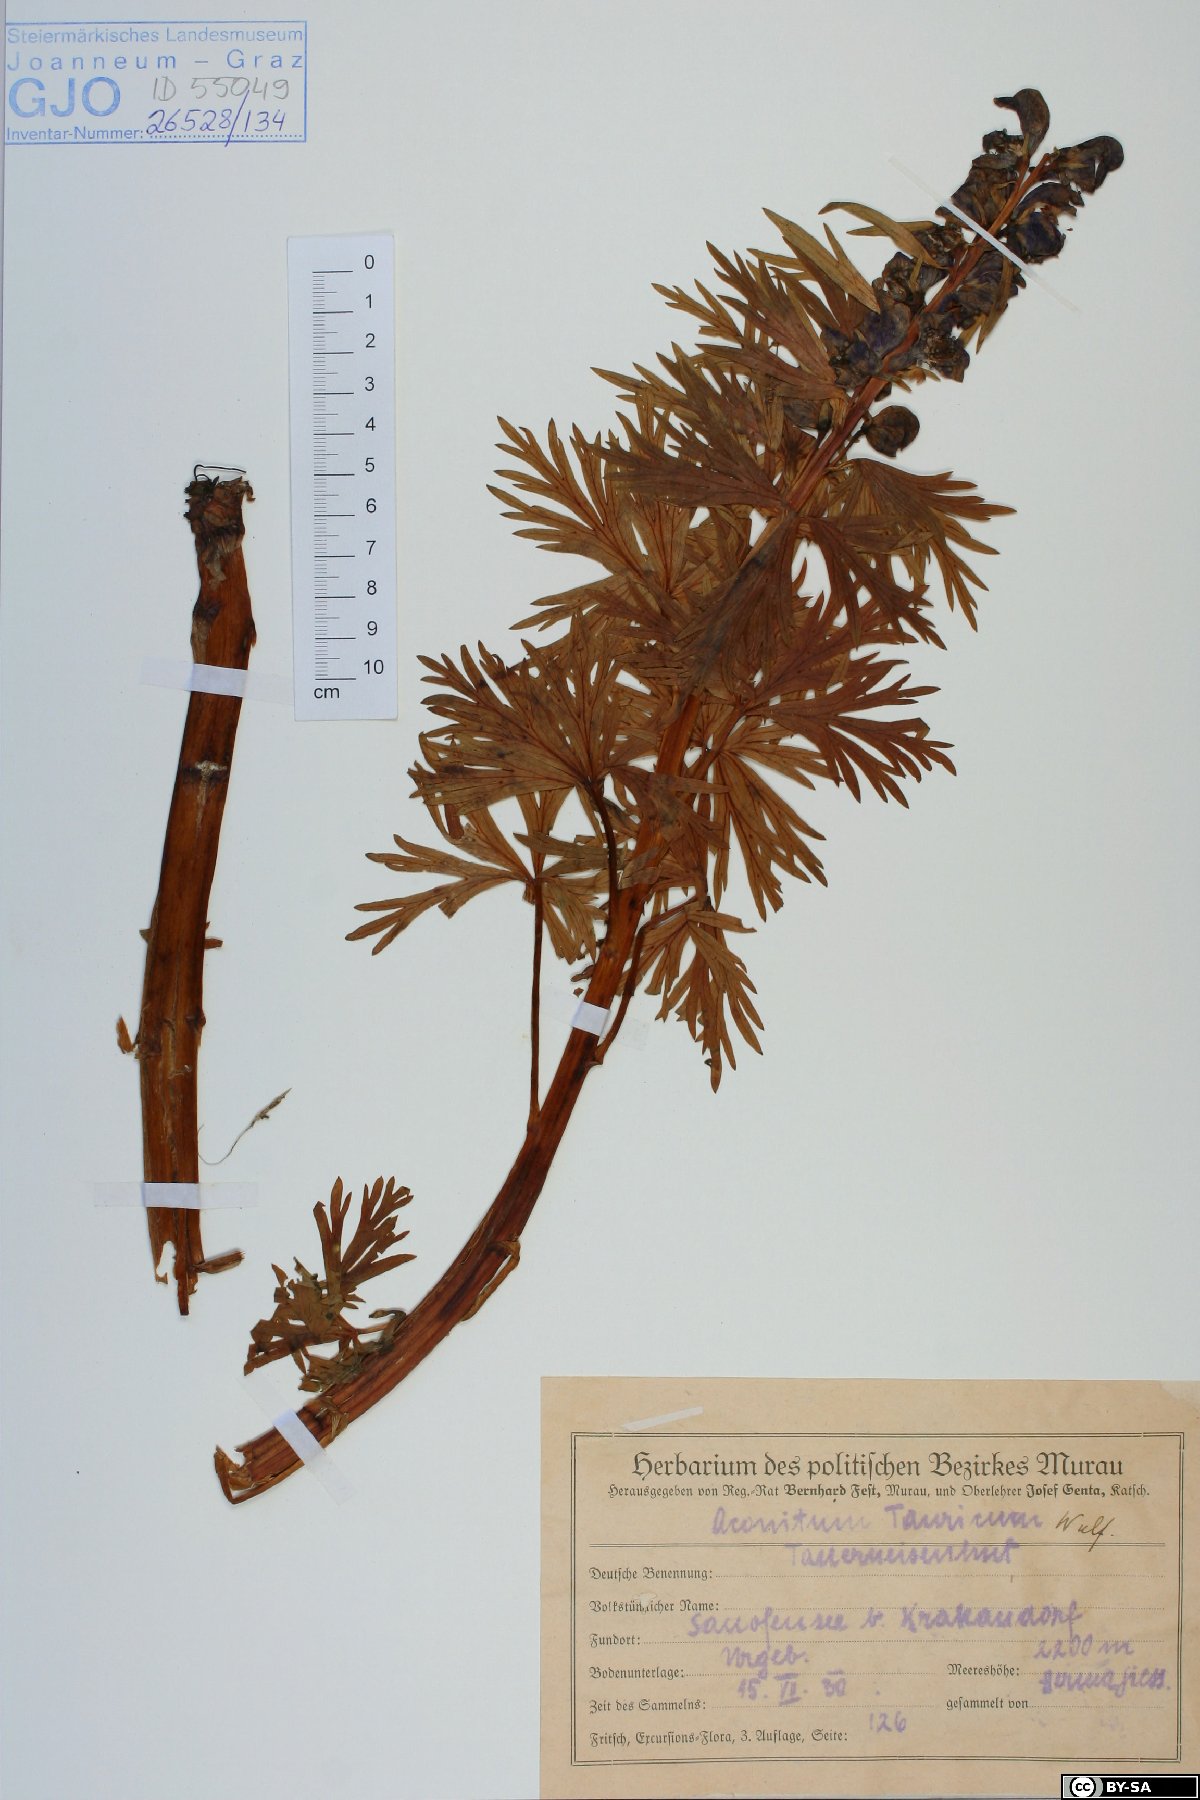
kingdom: Plantae
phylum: Tracheophyta
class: Magnoliopsida
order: Ranunculales
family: Ranunculaceae
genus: Aconitum
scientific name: Aconitum tauricum
